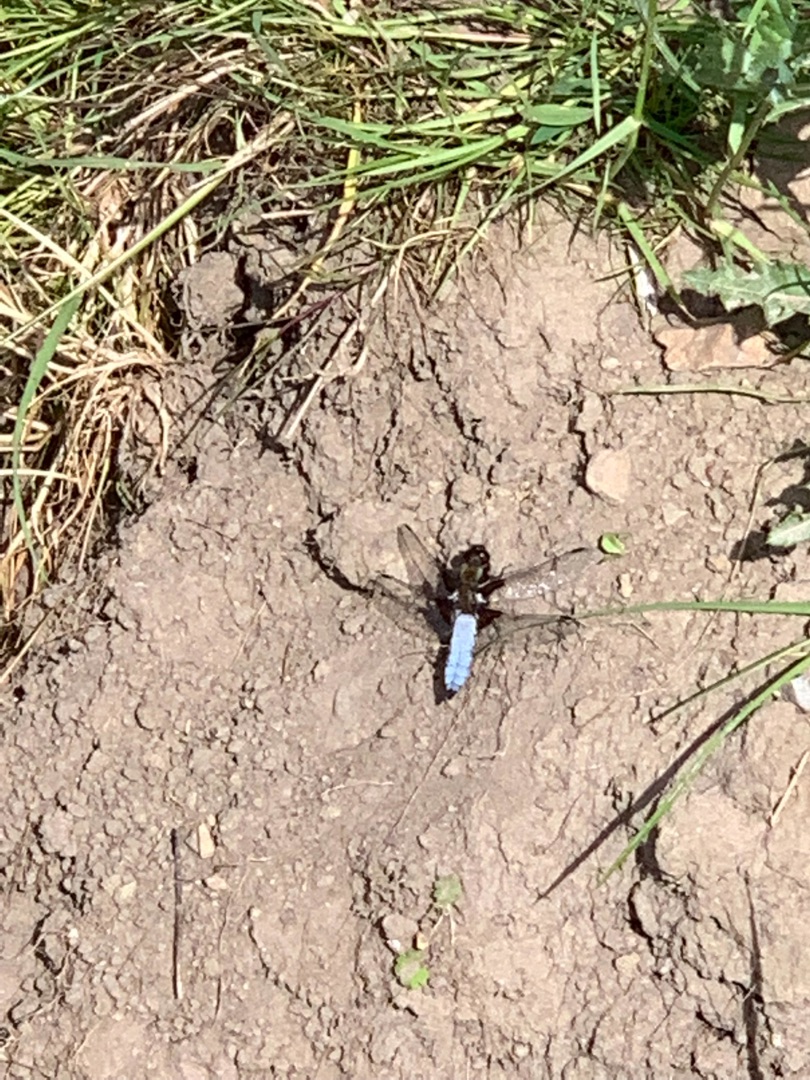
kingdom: Animalia
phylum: Arthropoda
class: Insecta
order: Odonata
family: Libellulidae
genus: Libellula
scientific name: Libellula depressa
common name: Blå libel
